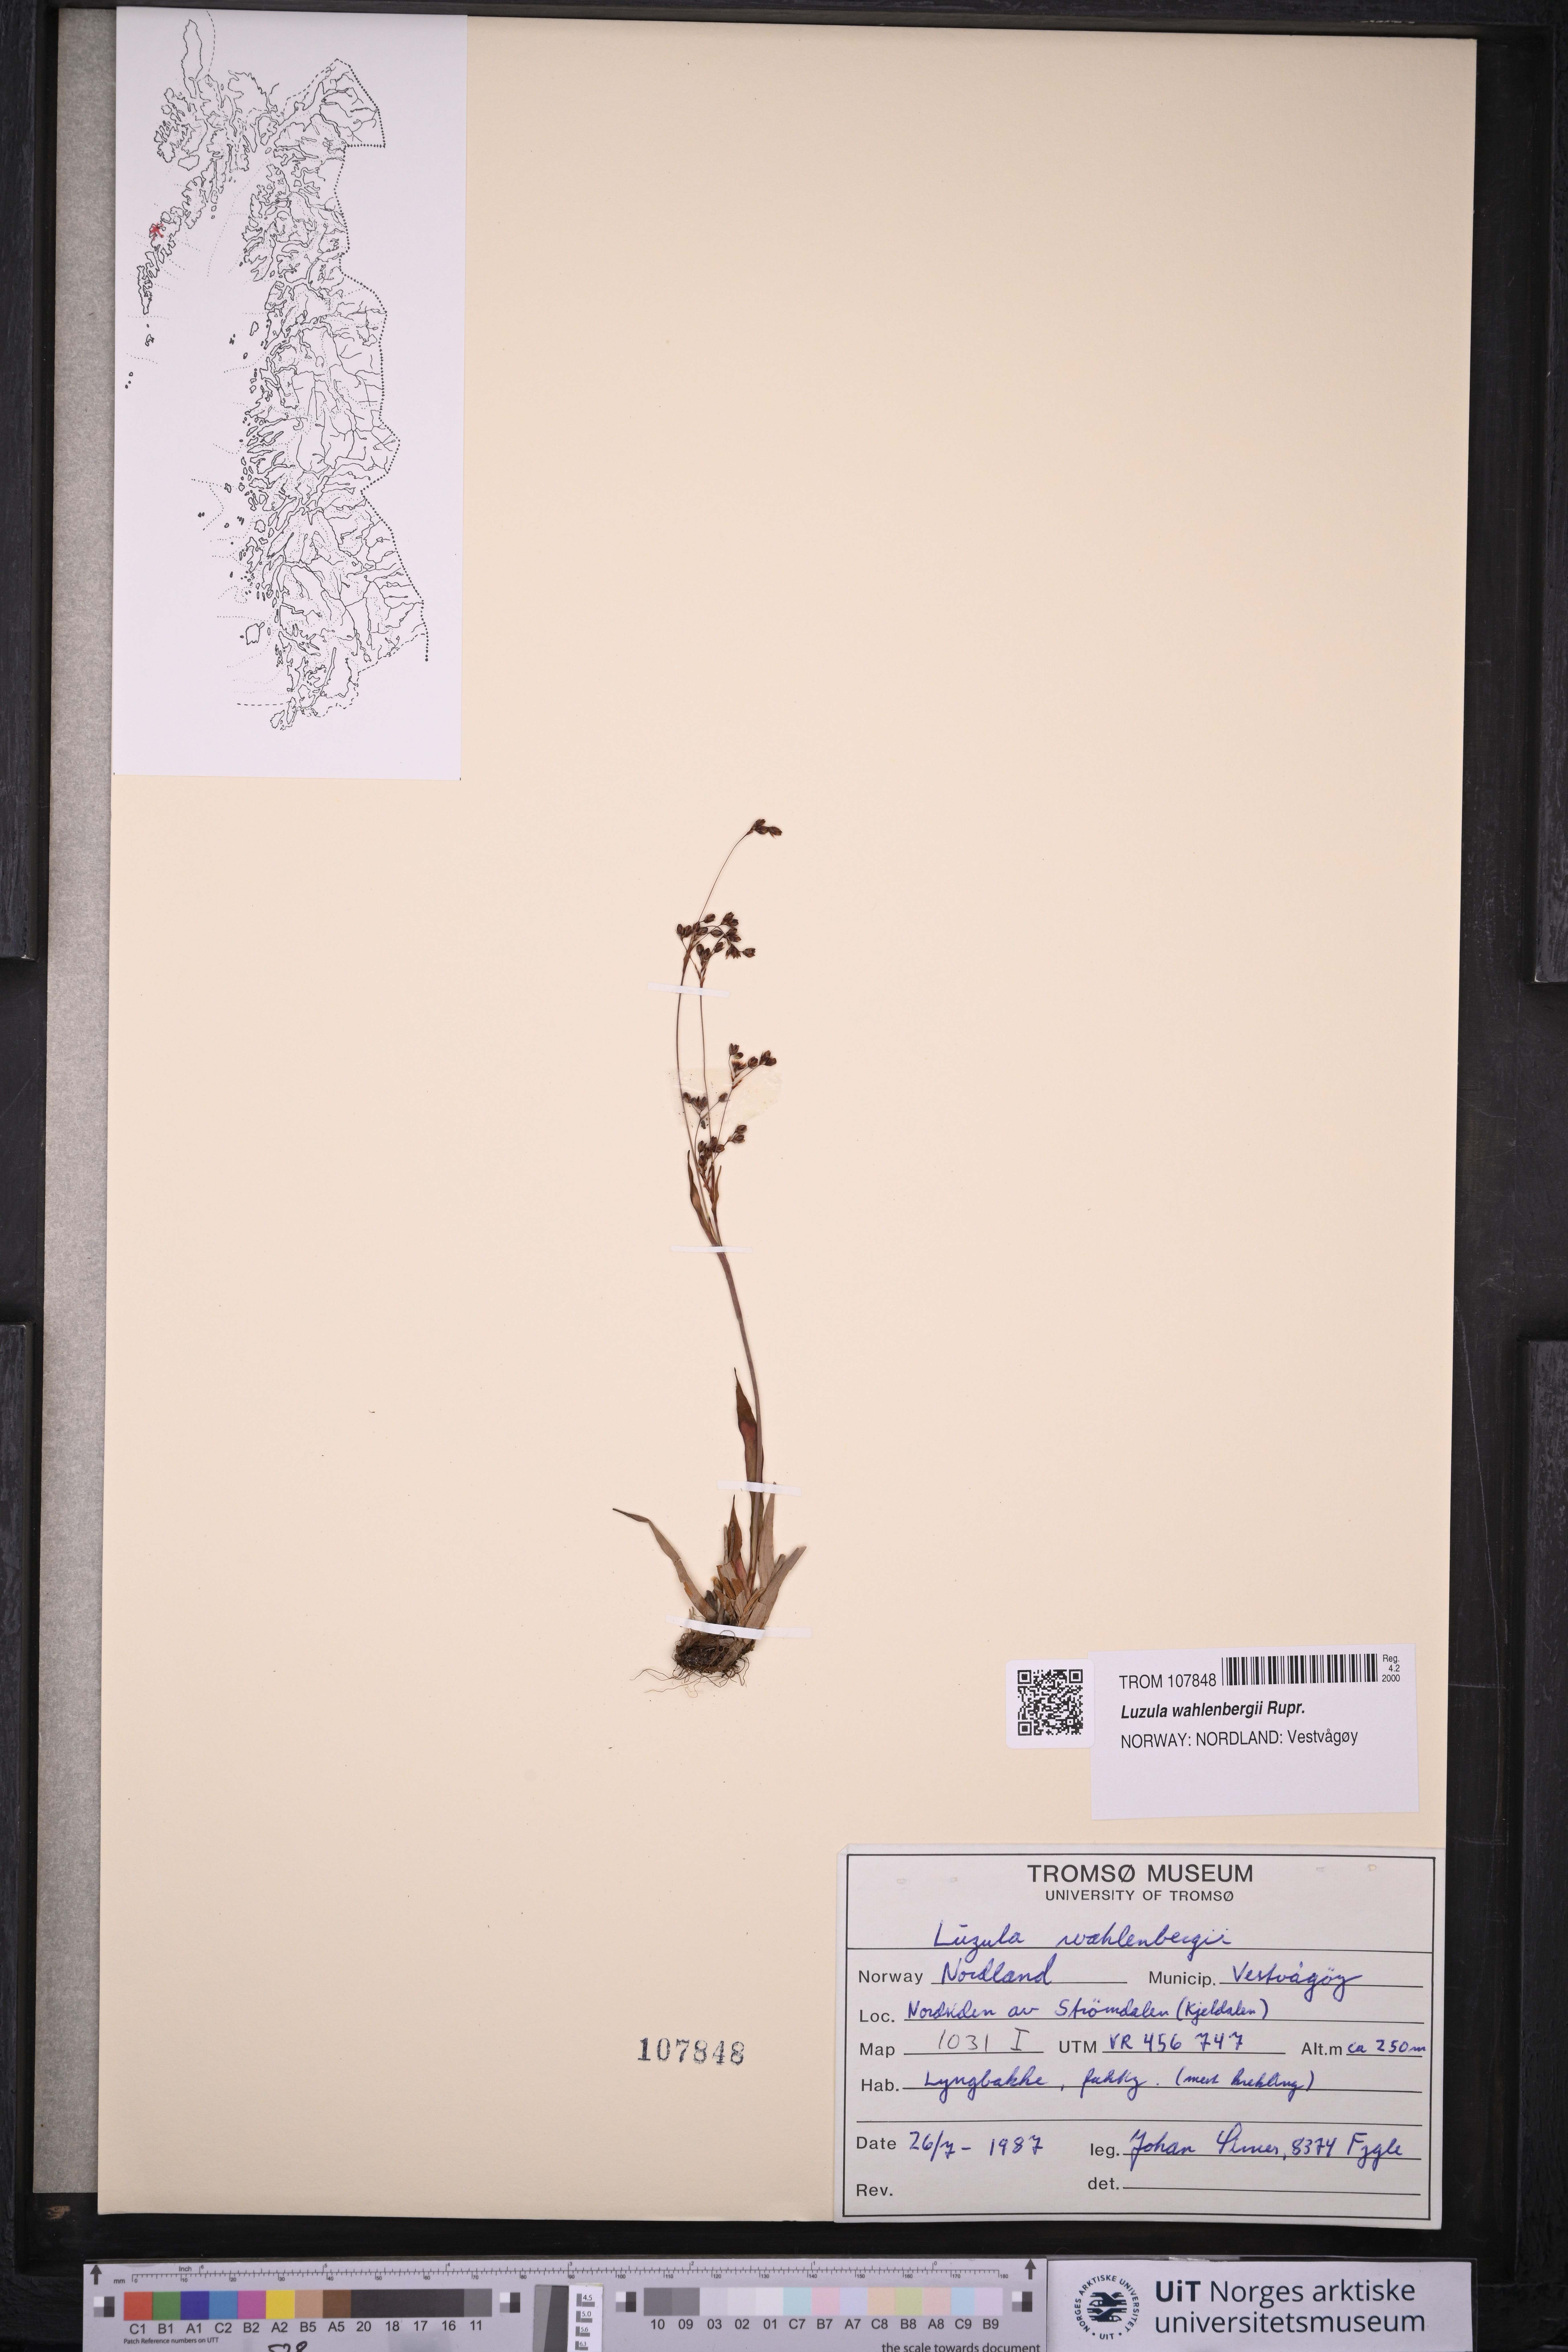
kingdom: Plantae
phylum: Tracheophyta
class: Liliopsida
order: Poales
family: Juncaceae
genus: Luzula
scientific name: Luzula wahlenbergii
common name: Wahlenberg's wood-rush
